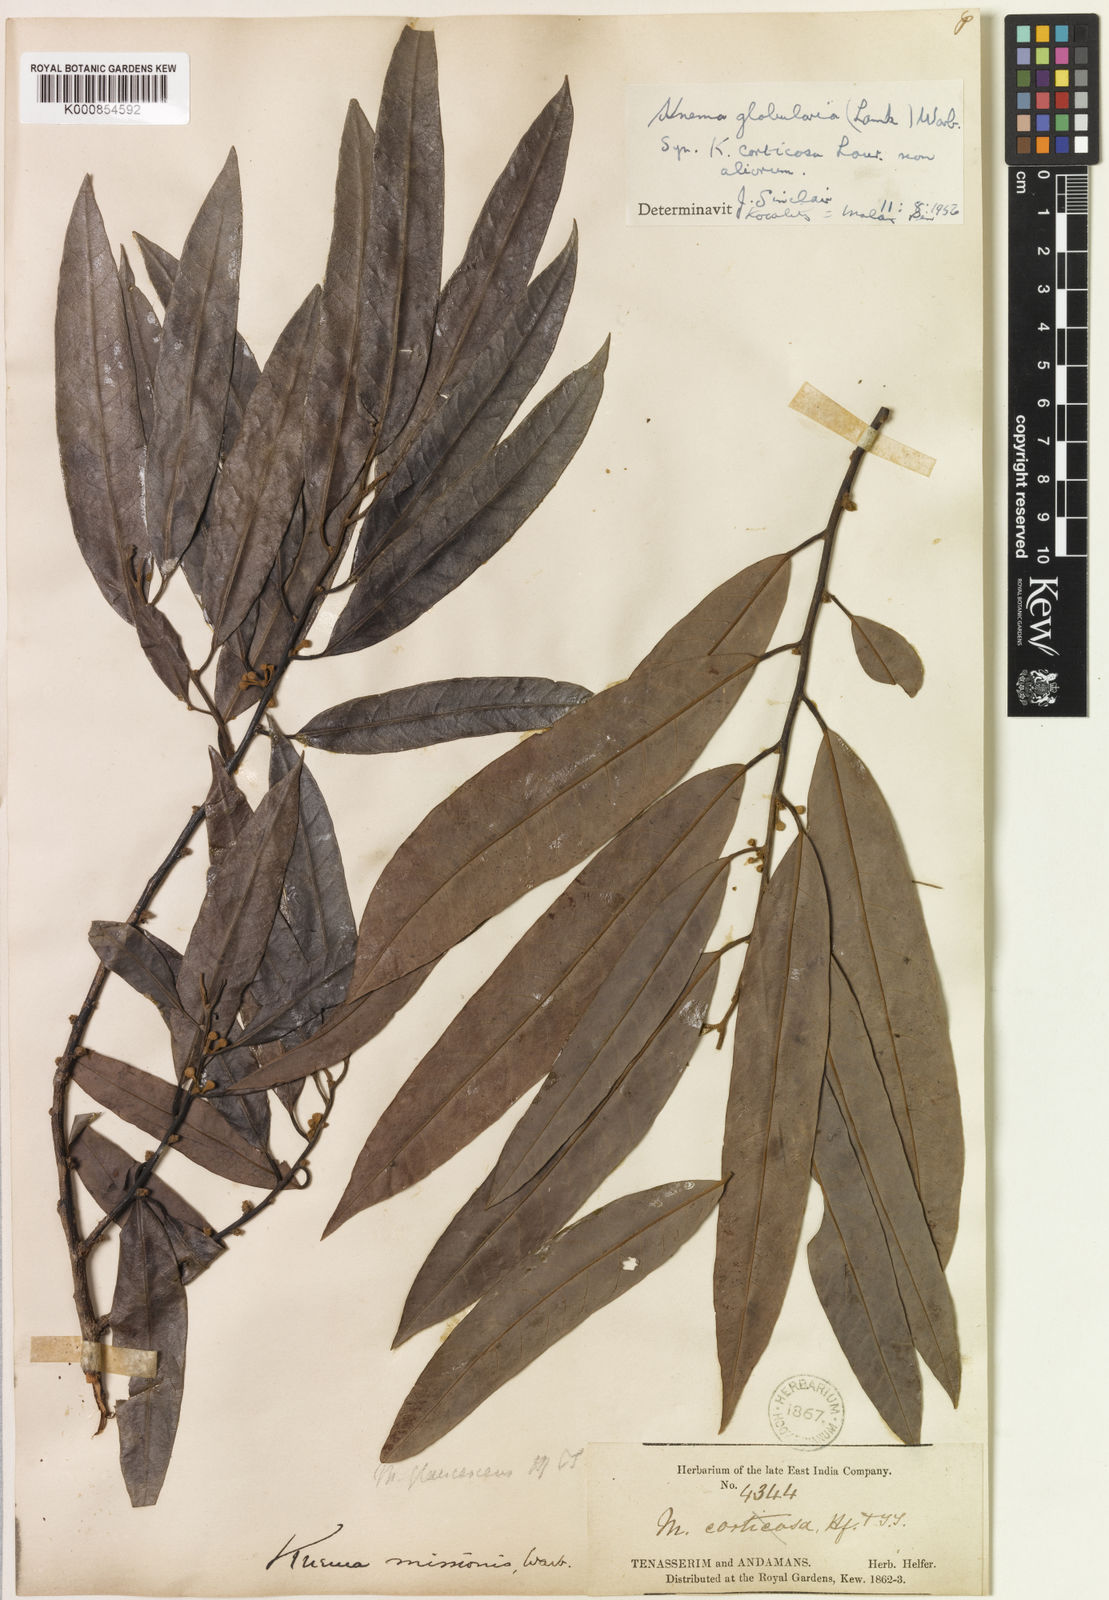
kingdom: Plantae
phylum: Tracheophyta
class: Magnoliopsida
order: Magnoliales
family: Myristicaceae
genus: Knema
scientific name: Knema globularia
